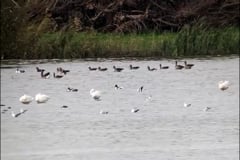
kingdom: Animalia
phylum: Chordata
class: Aves
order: Anseriformes
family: Anatidae
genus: Cygnus
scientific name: Cygnus columbianus
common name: Tundra swan
